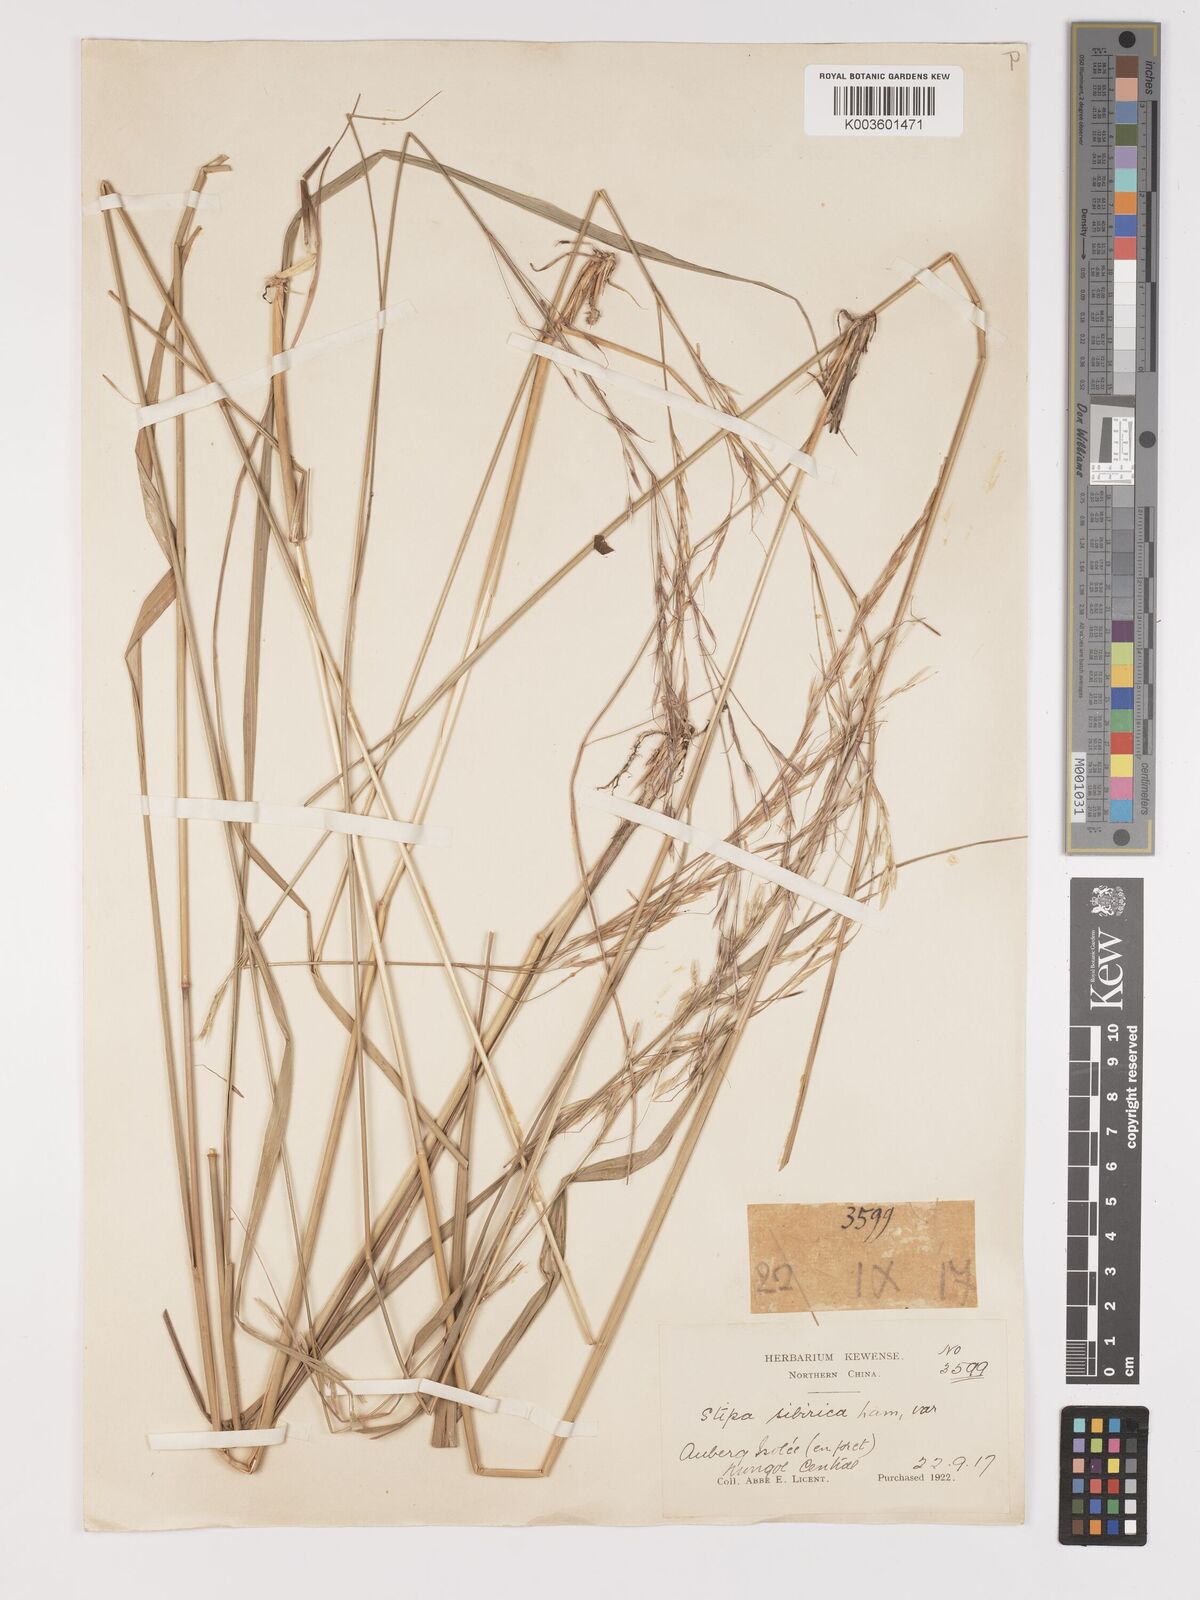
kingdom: Plantae
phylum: Tracheophyta
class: Liliopsida
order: Poales
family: Poaceae
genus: Achnatherum
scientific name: Achnatherum pekinense
